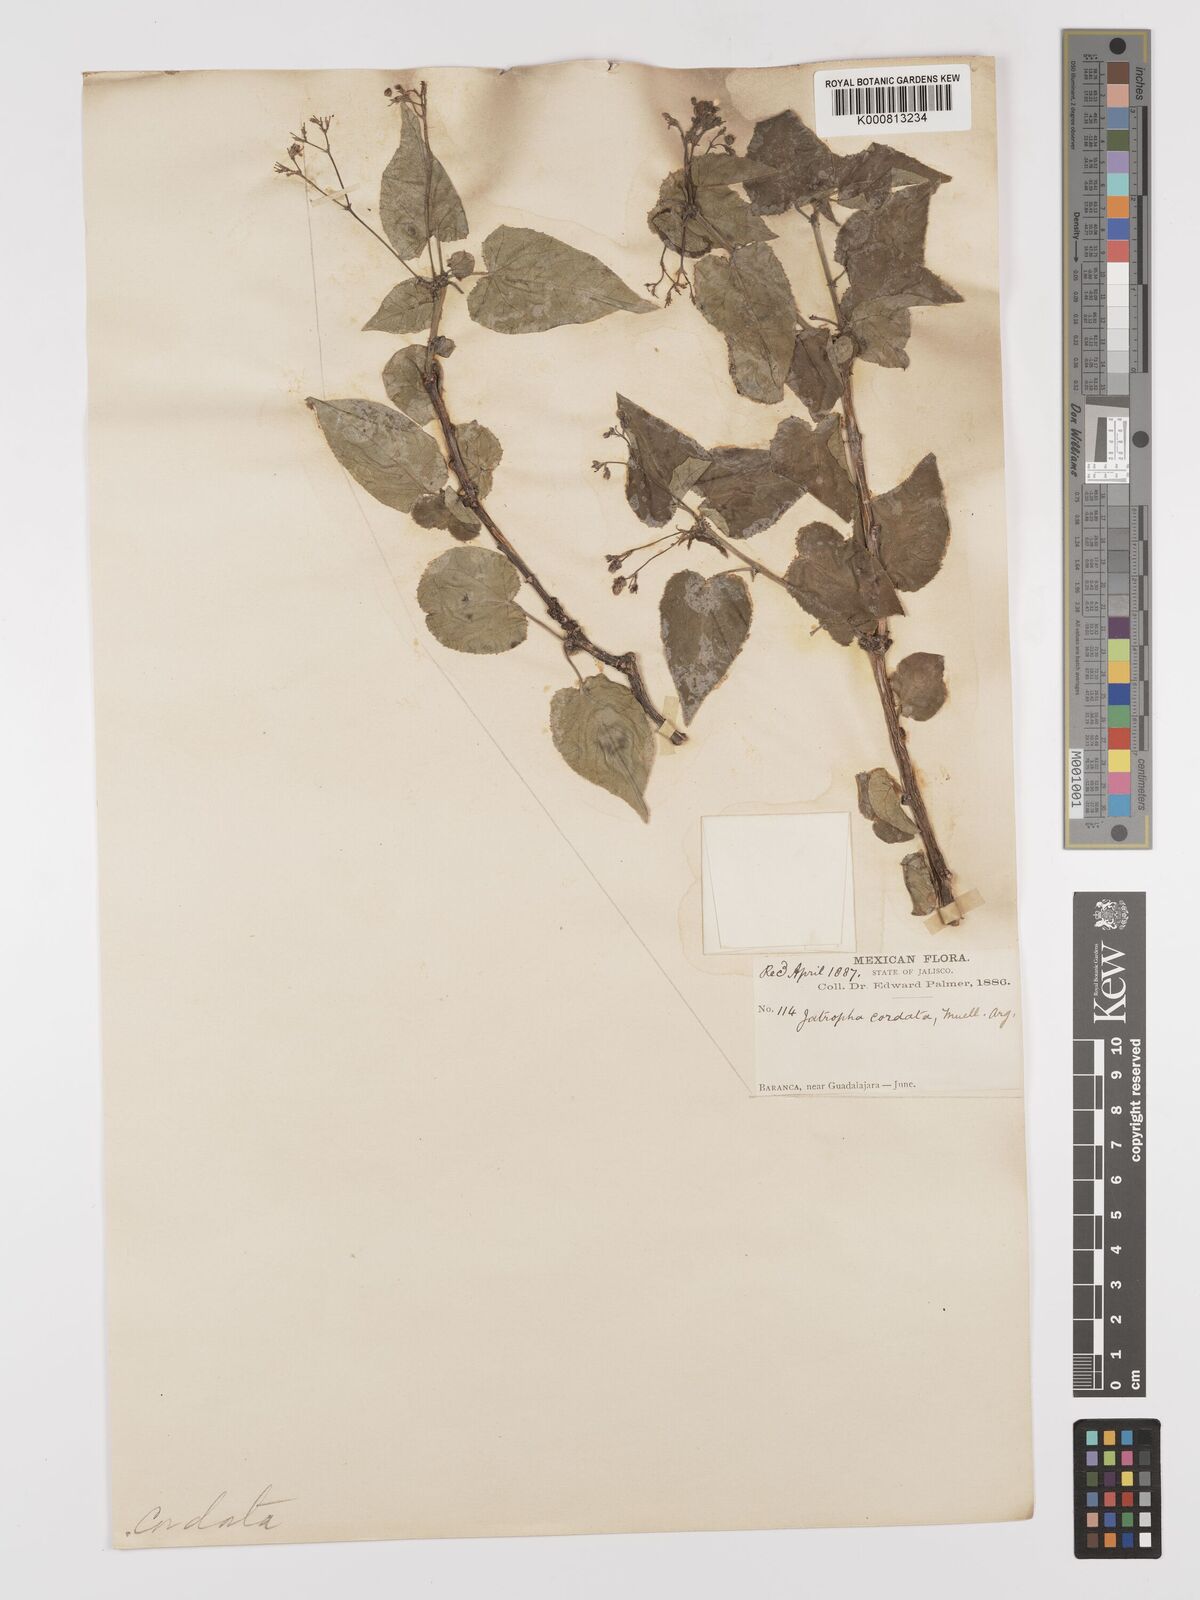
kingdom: Plantae
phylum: Tracheophyta
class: Magnoliopsida
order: Malpighiales
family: Euphorbiaceae
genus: Jatropha
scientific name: Jatropha
